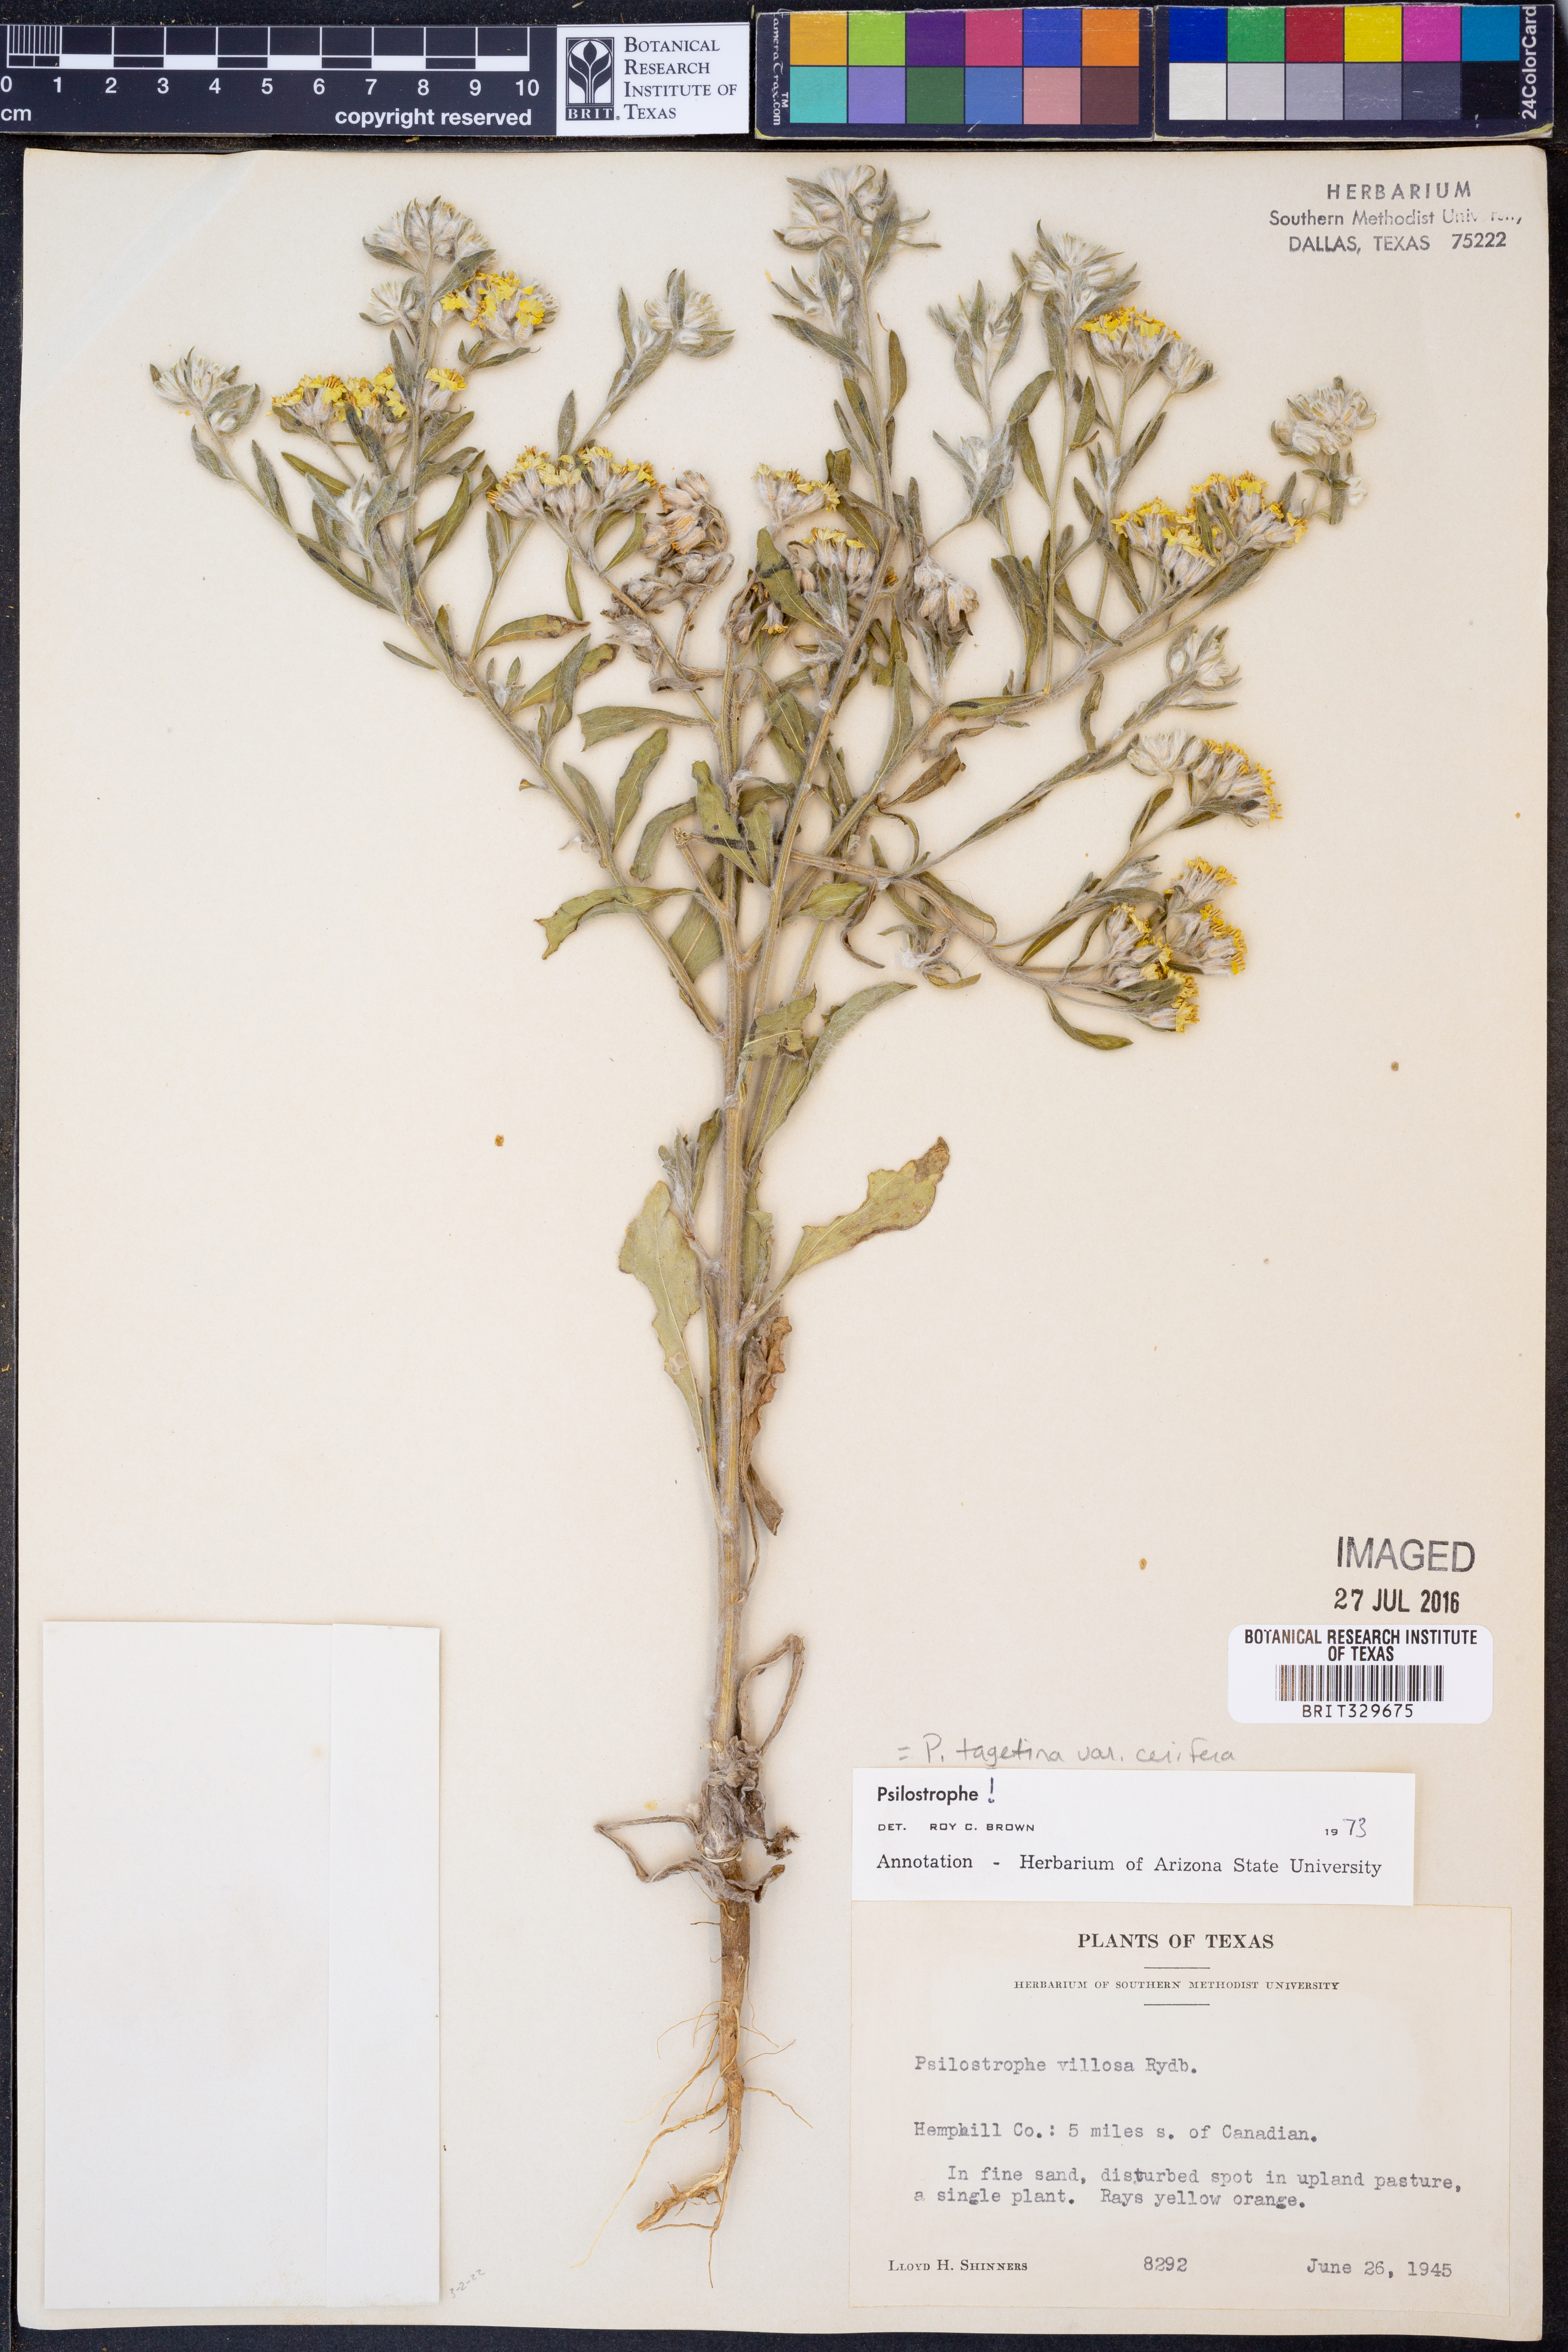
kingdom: Plantae
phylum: Tracheophyta
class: Magnoliopsida
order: Asterales
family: Asteraceae
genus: Psilostrophe
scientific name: Psilostrophe villosa
